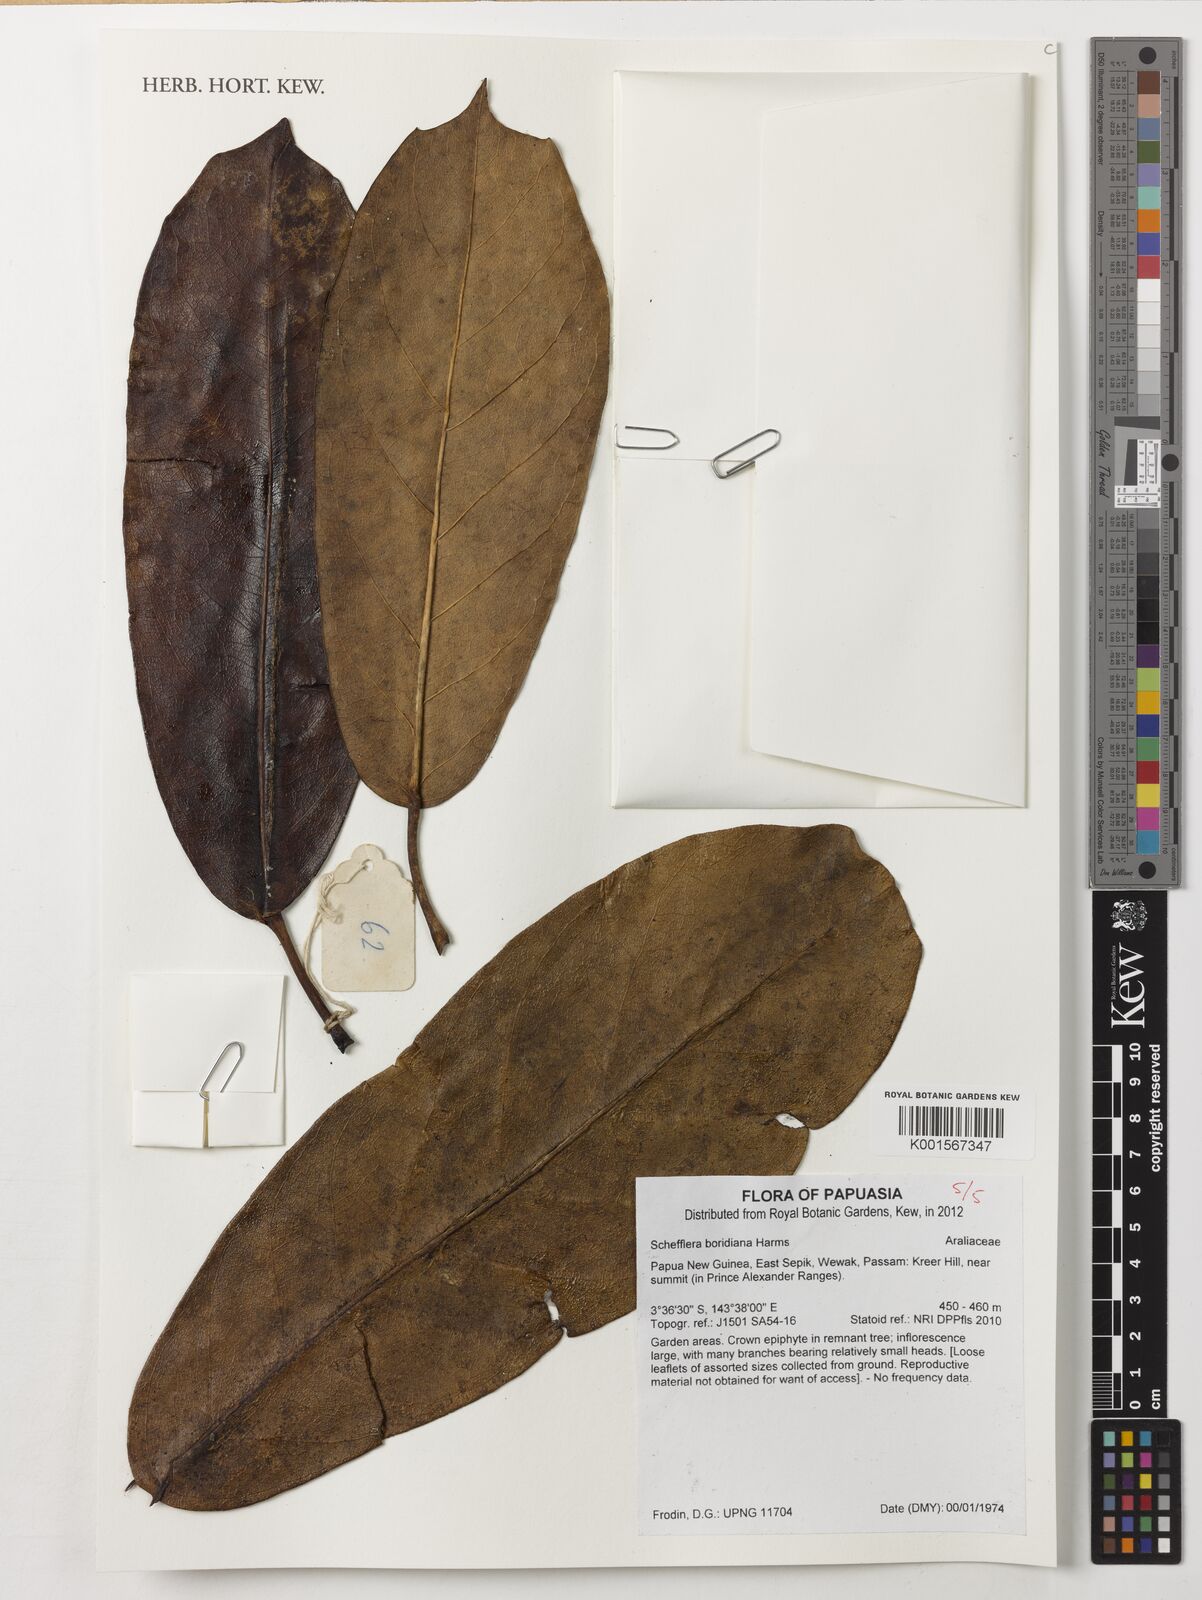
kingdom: Plantae
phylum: Tracheophyta
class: Magnoliopsida
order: Apiales
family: Araliaceae
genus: Heptapleurum
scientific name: Heptapleurum boridianum
